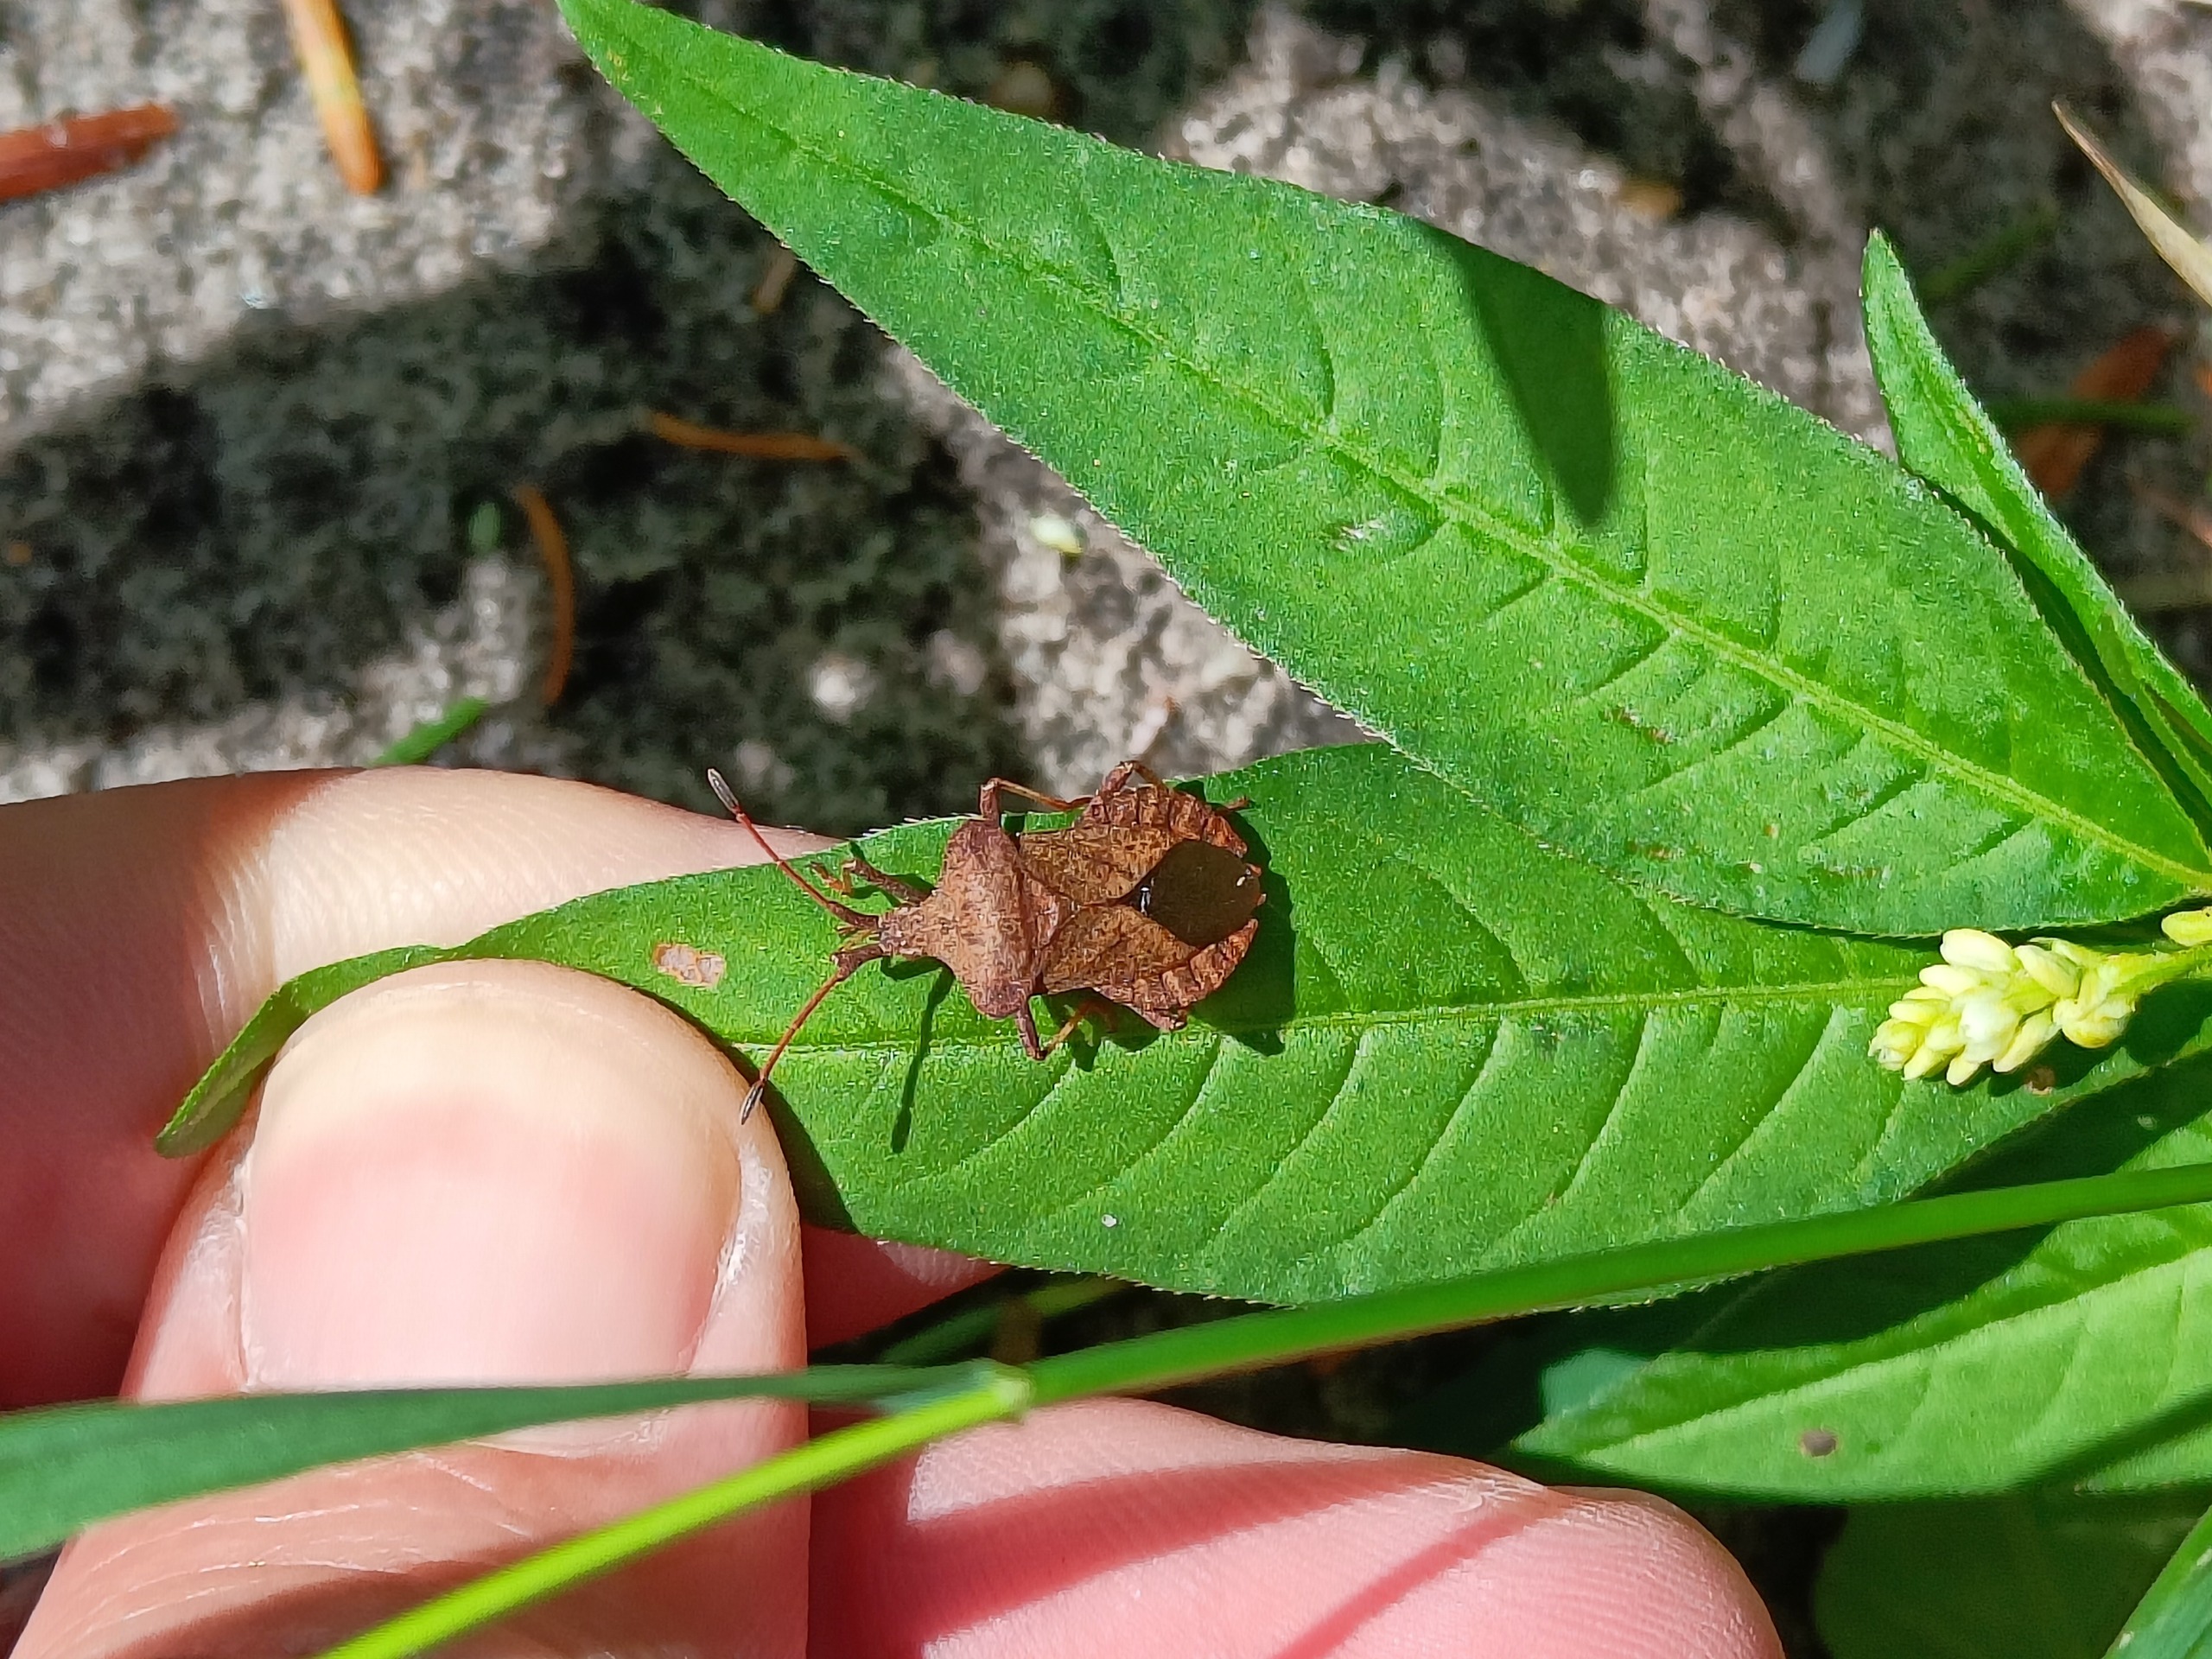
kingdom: Animalia
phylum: Arthropoda
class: Insecta
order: Hemiptera
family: Coreidae
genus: Coreus
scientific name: Coreus marginatus
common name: Skræppetæge
